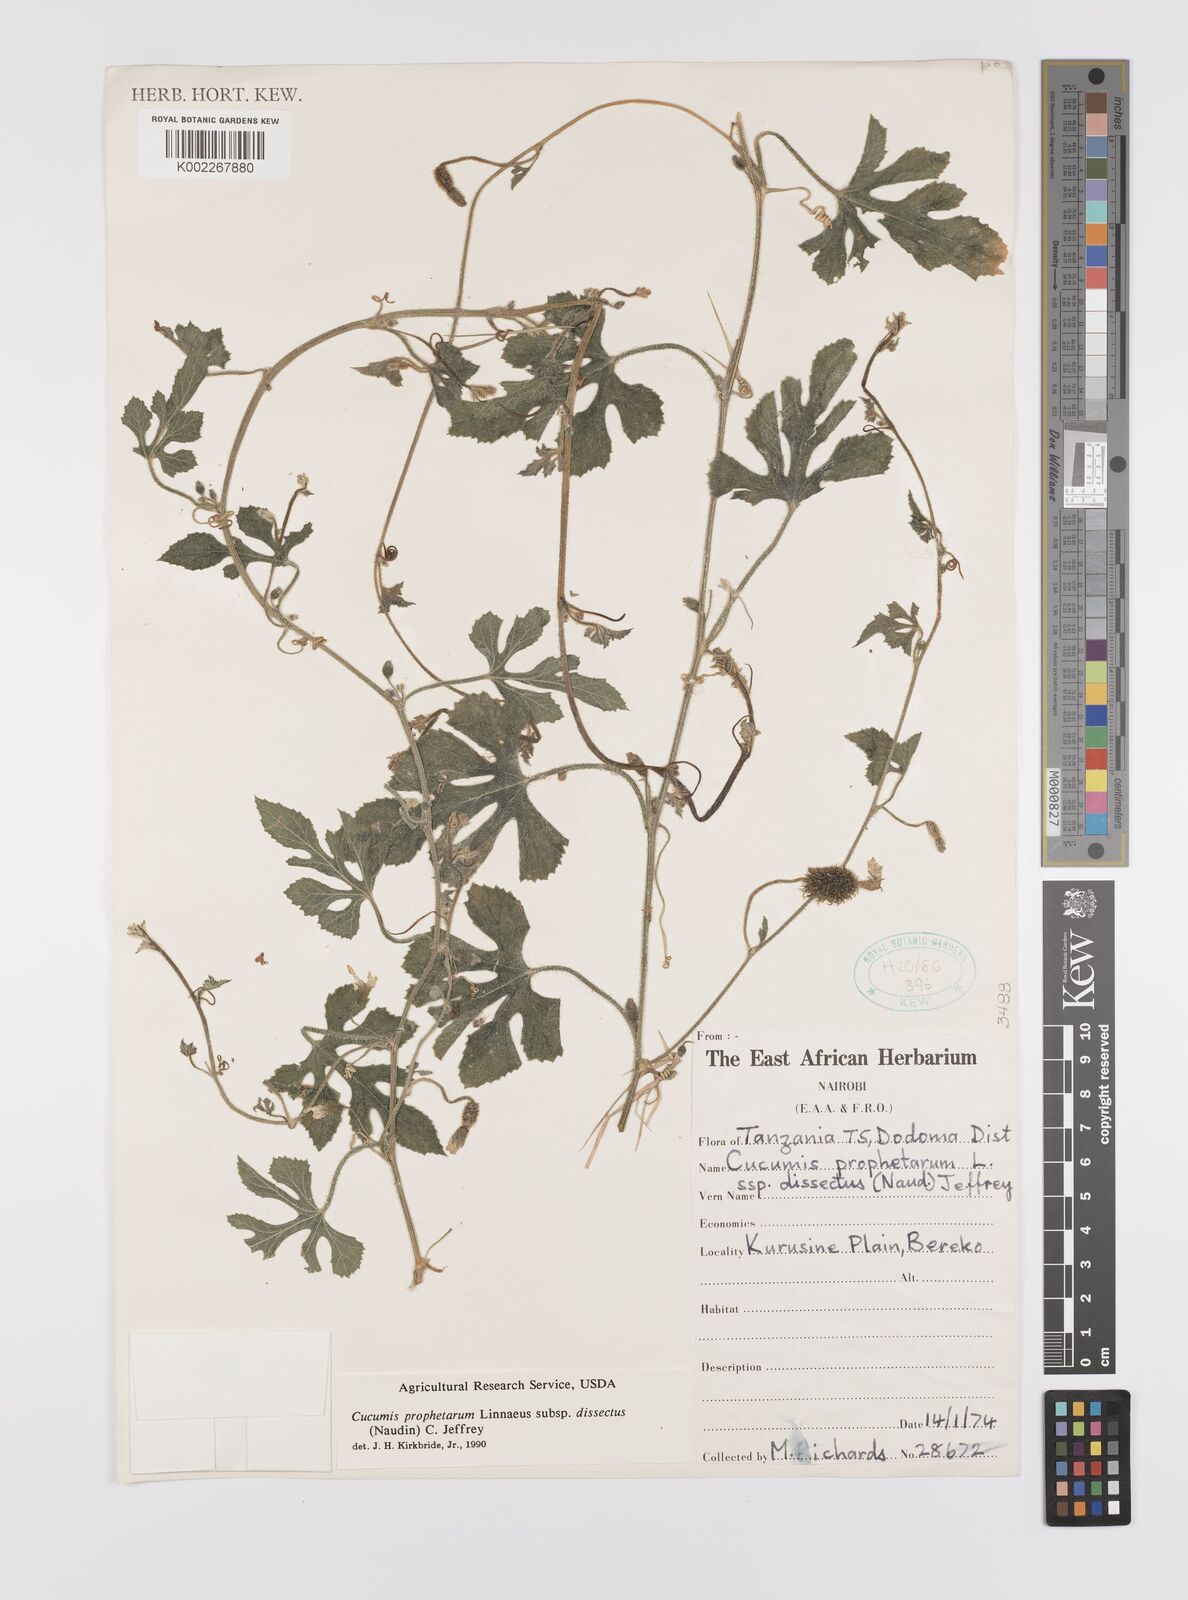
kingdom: Plantae
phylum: Tracheophyta
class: Magnoliopsida
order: Cucurbitales
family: Cucurbitaceae
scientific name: Cucurbitaceae
